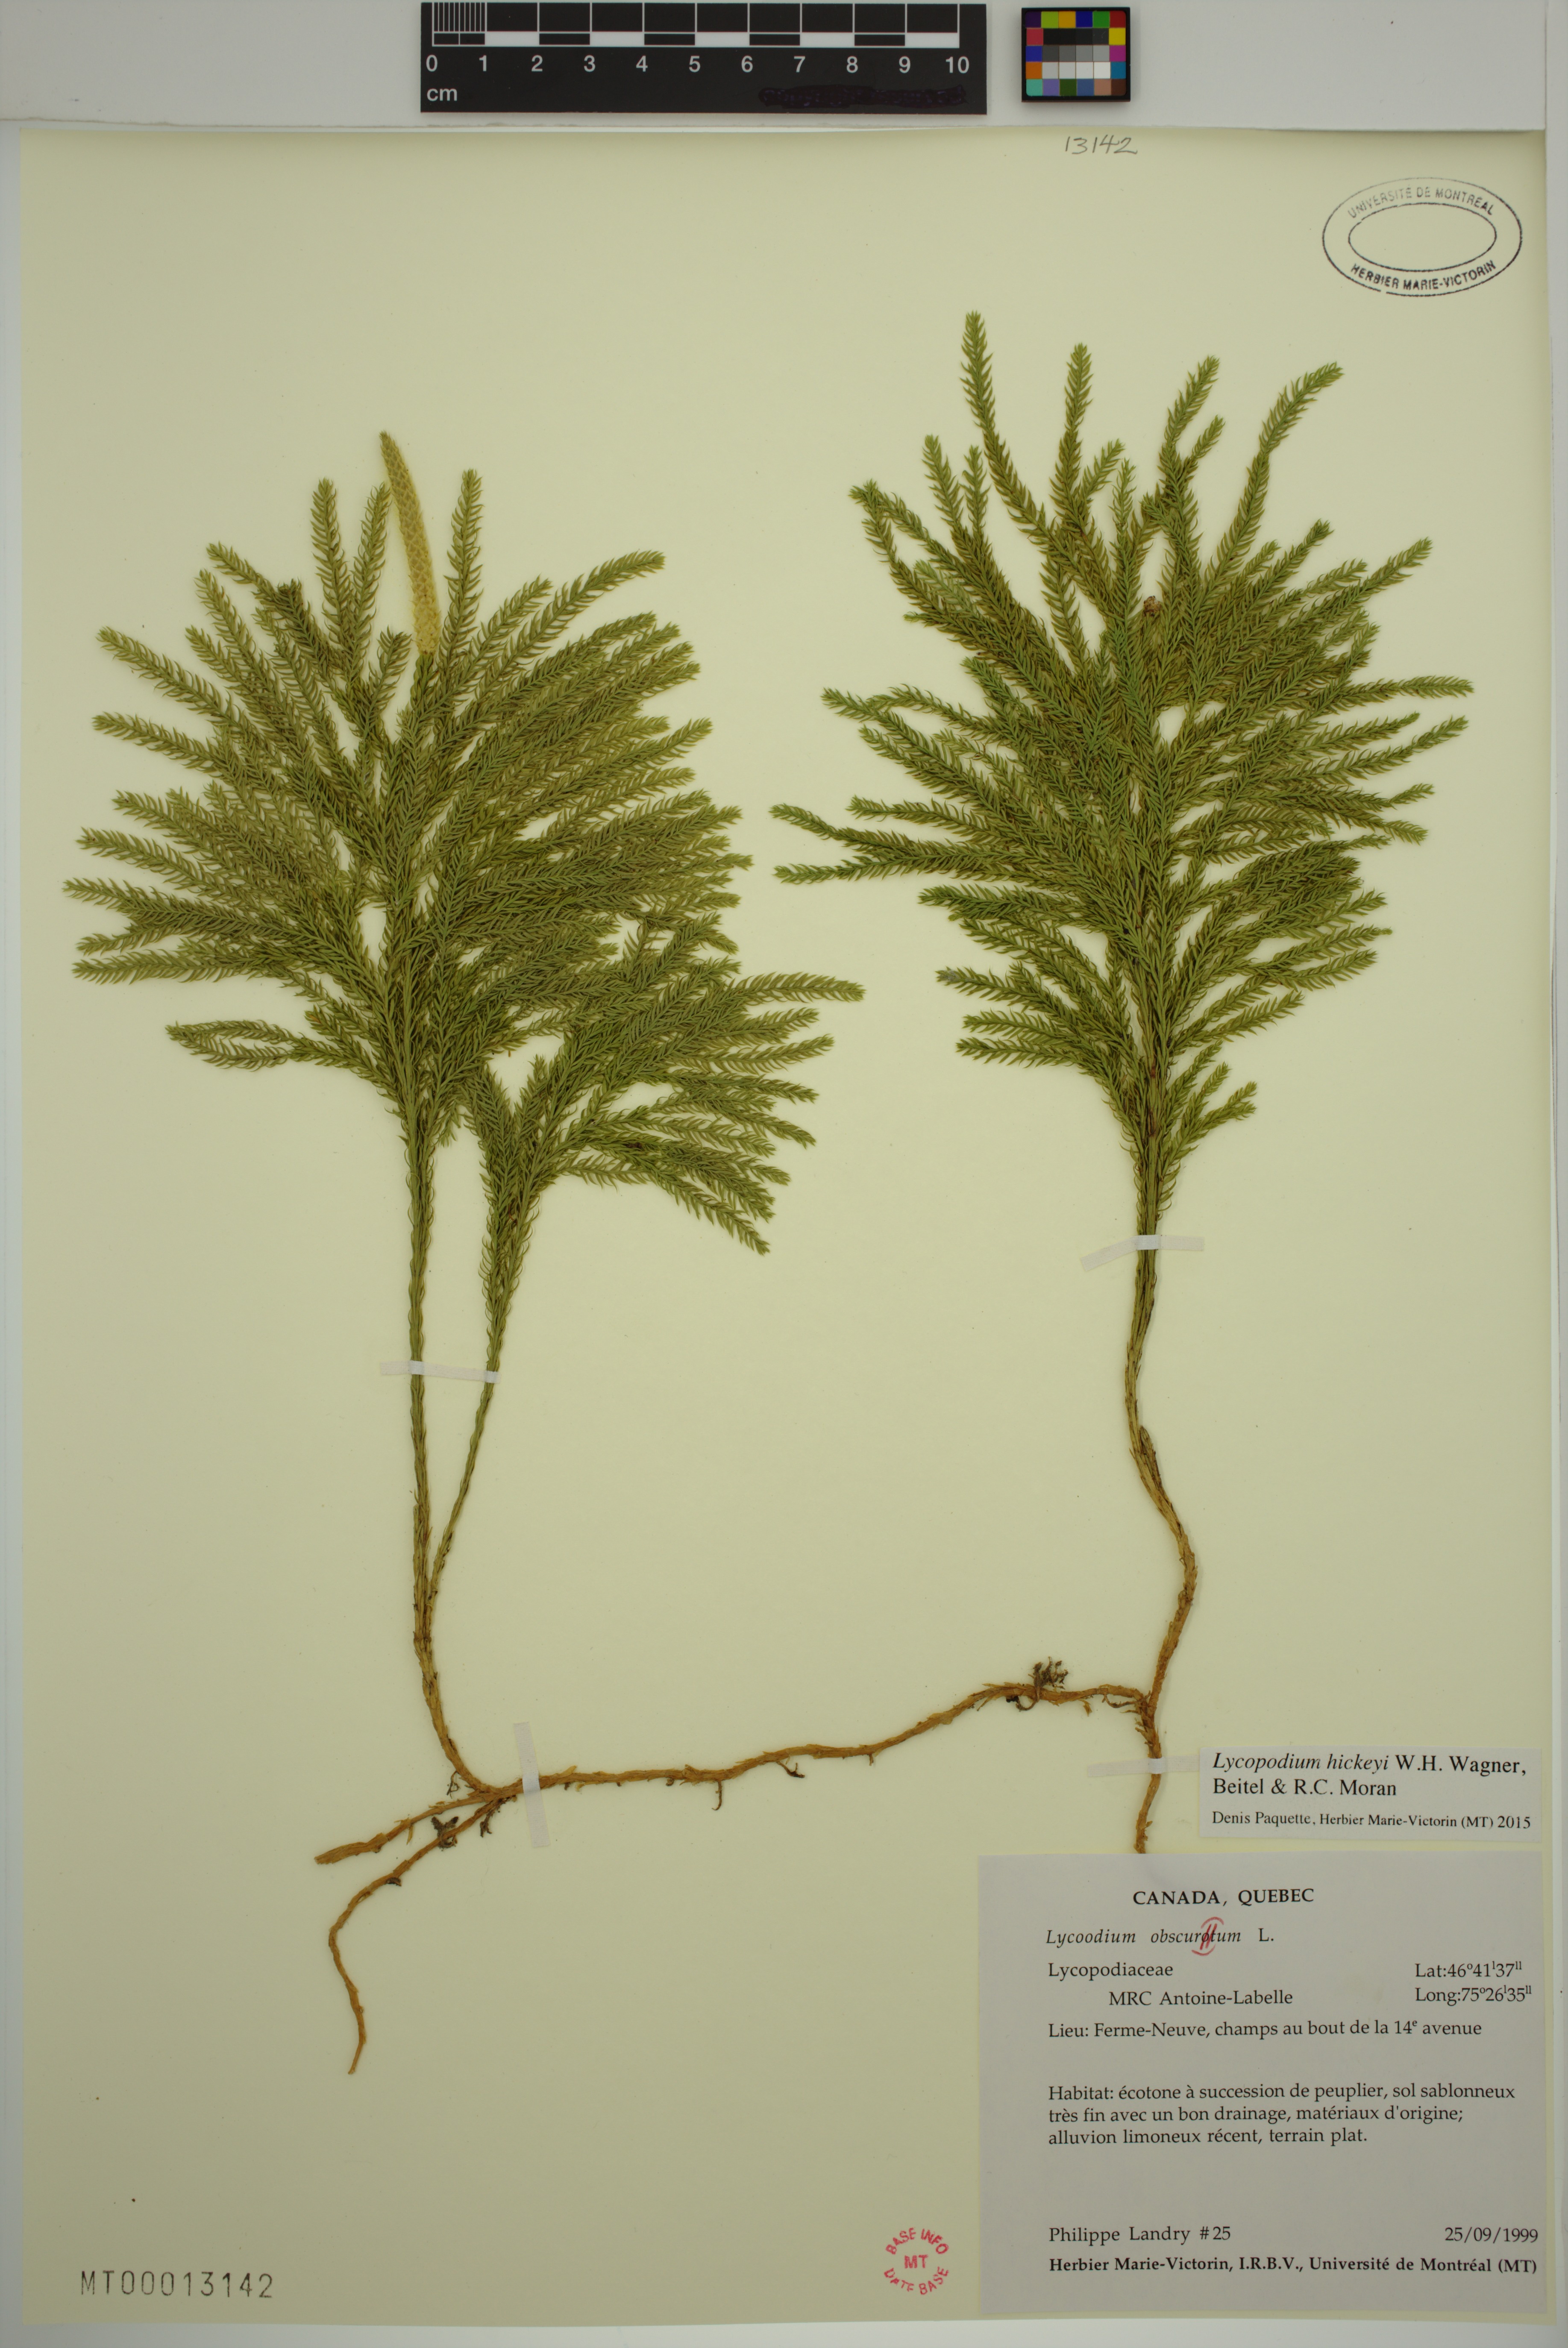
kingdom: Plantae
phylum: Tracheophyta
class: Lycopodiopsida
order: Lycopodiales
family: Lycopodiaceae
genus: Dendrolycopodium
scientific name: Dendrolycopodium hickeyi
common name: Hickey's clubmoss
